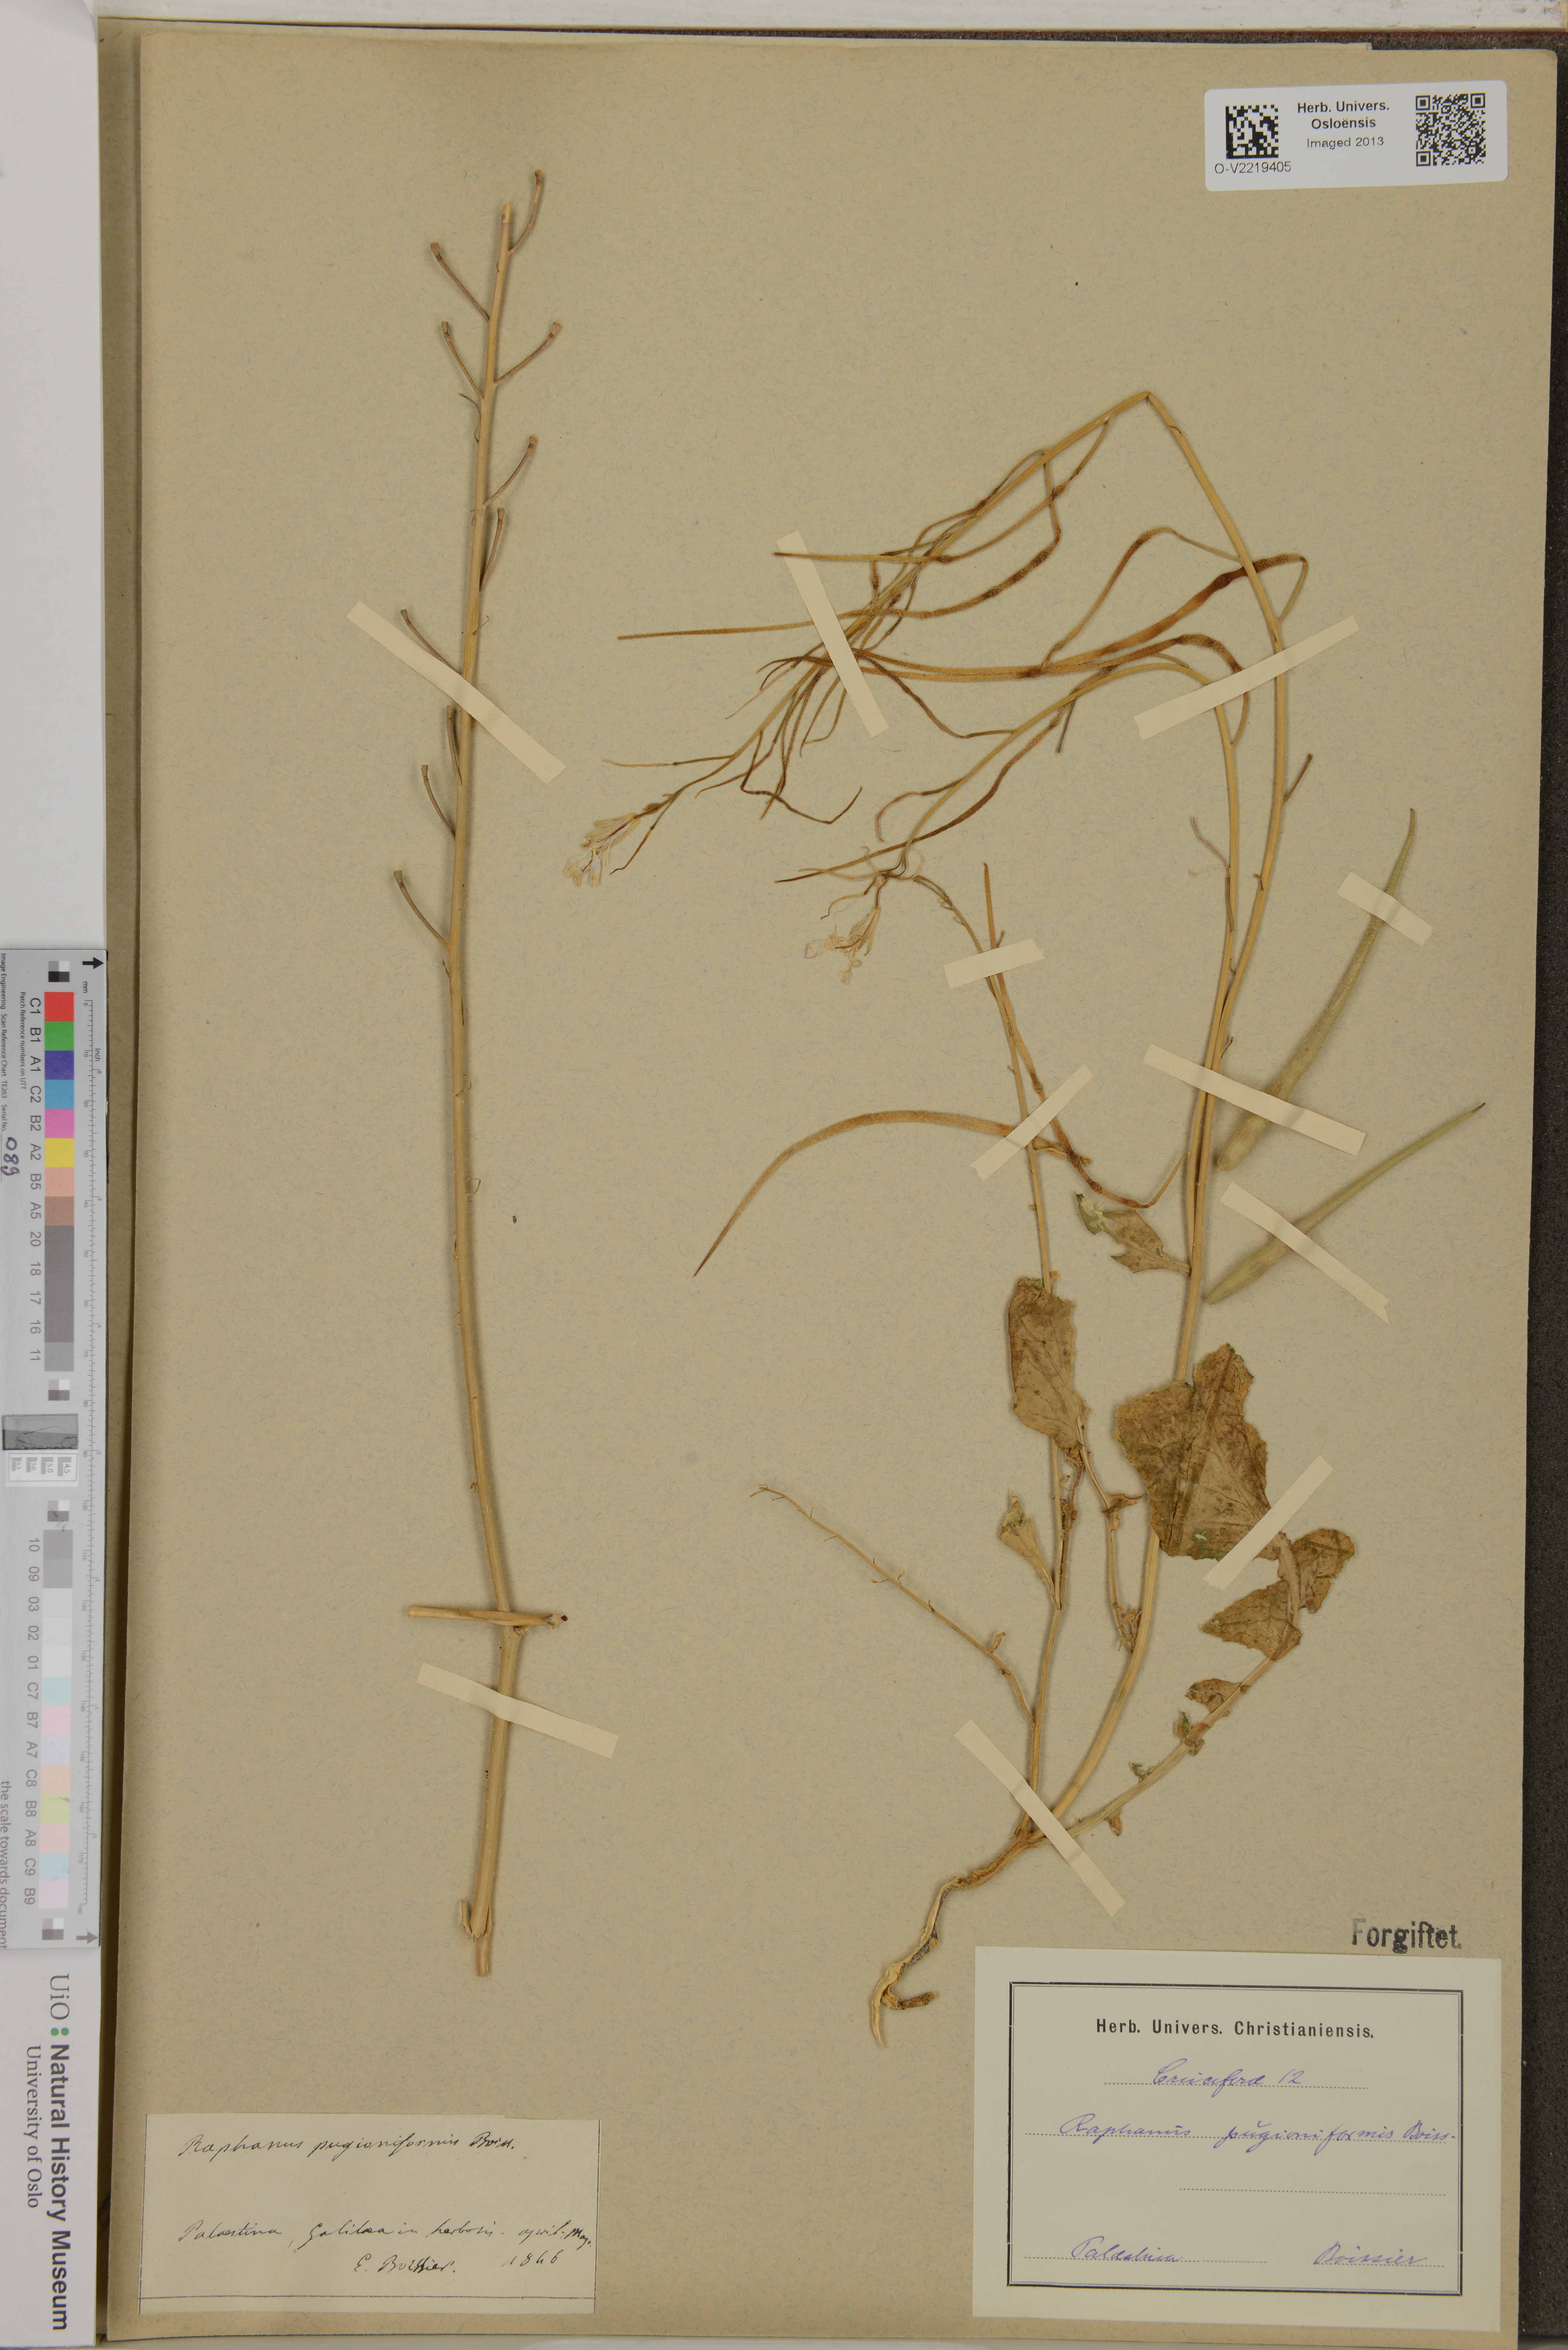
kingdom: Plantae
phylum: Tracheophyta
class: Magnoliopsida
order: Brassicales
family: Brassicaceae
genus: Raphanus
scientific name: Raphanus raphanistrum
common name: Wild radish
